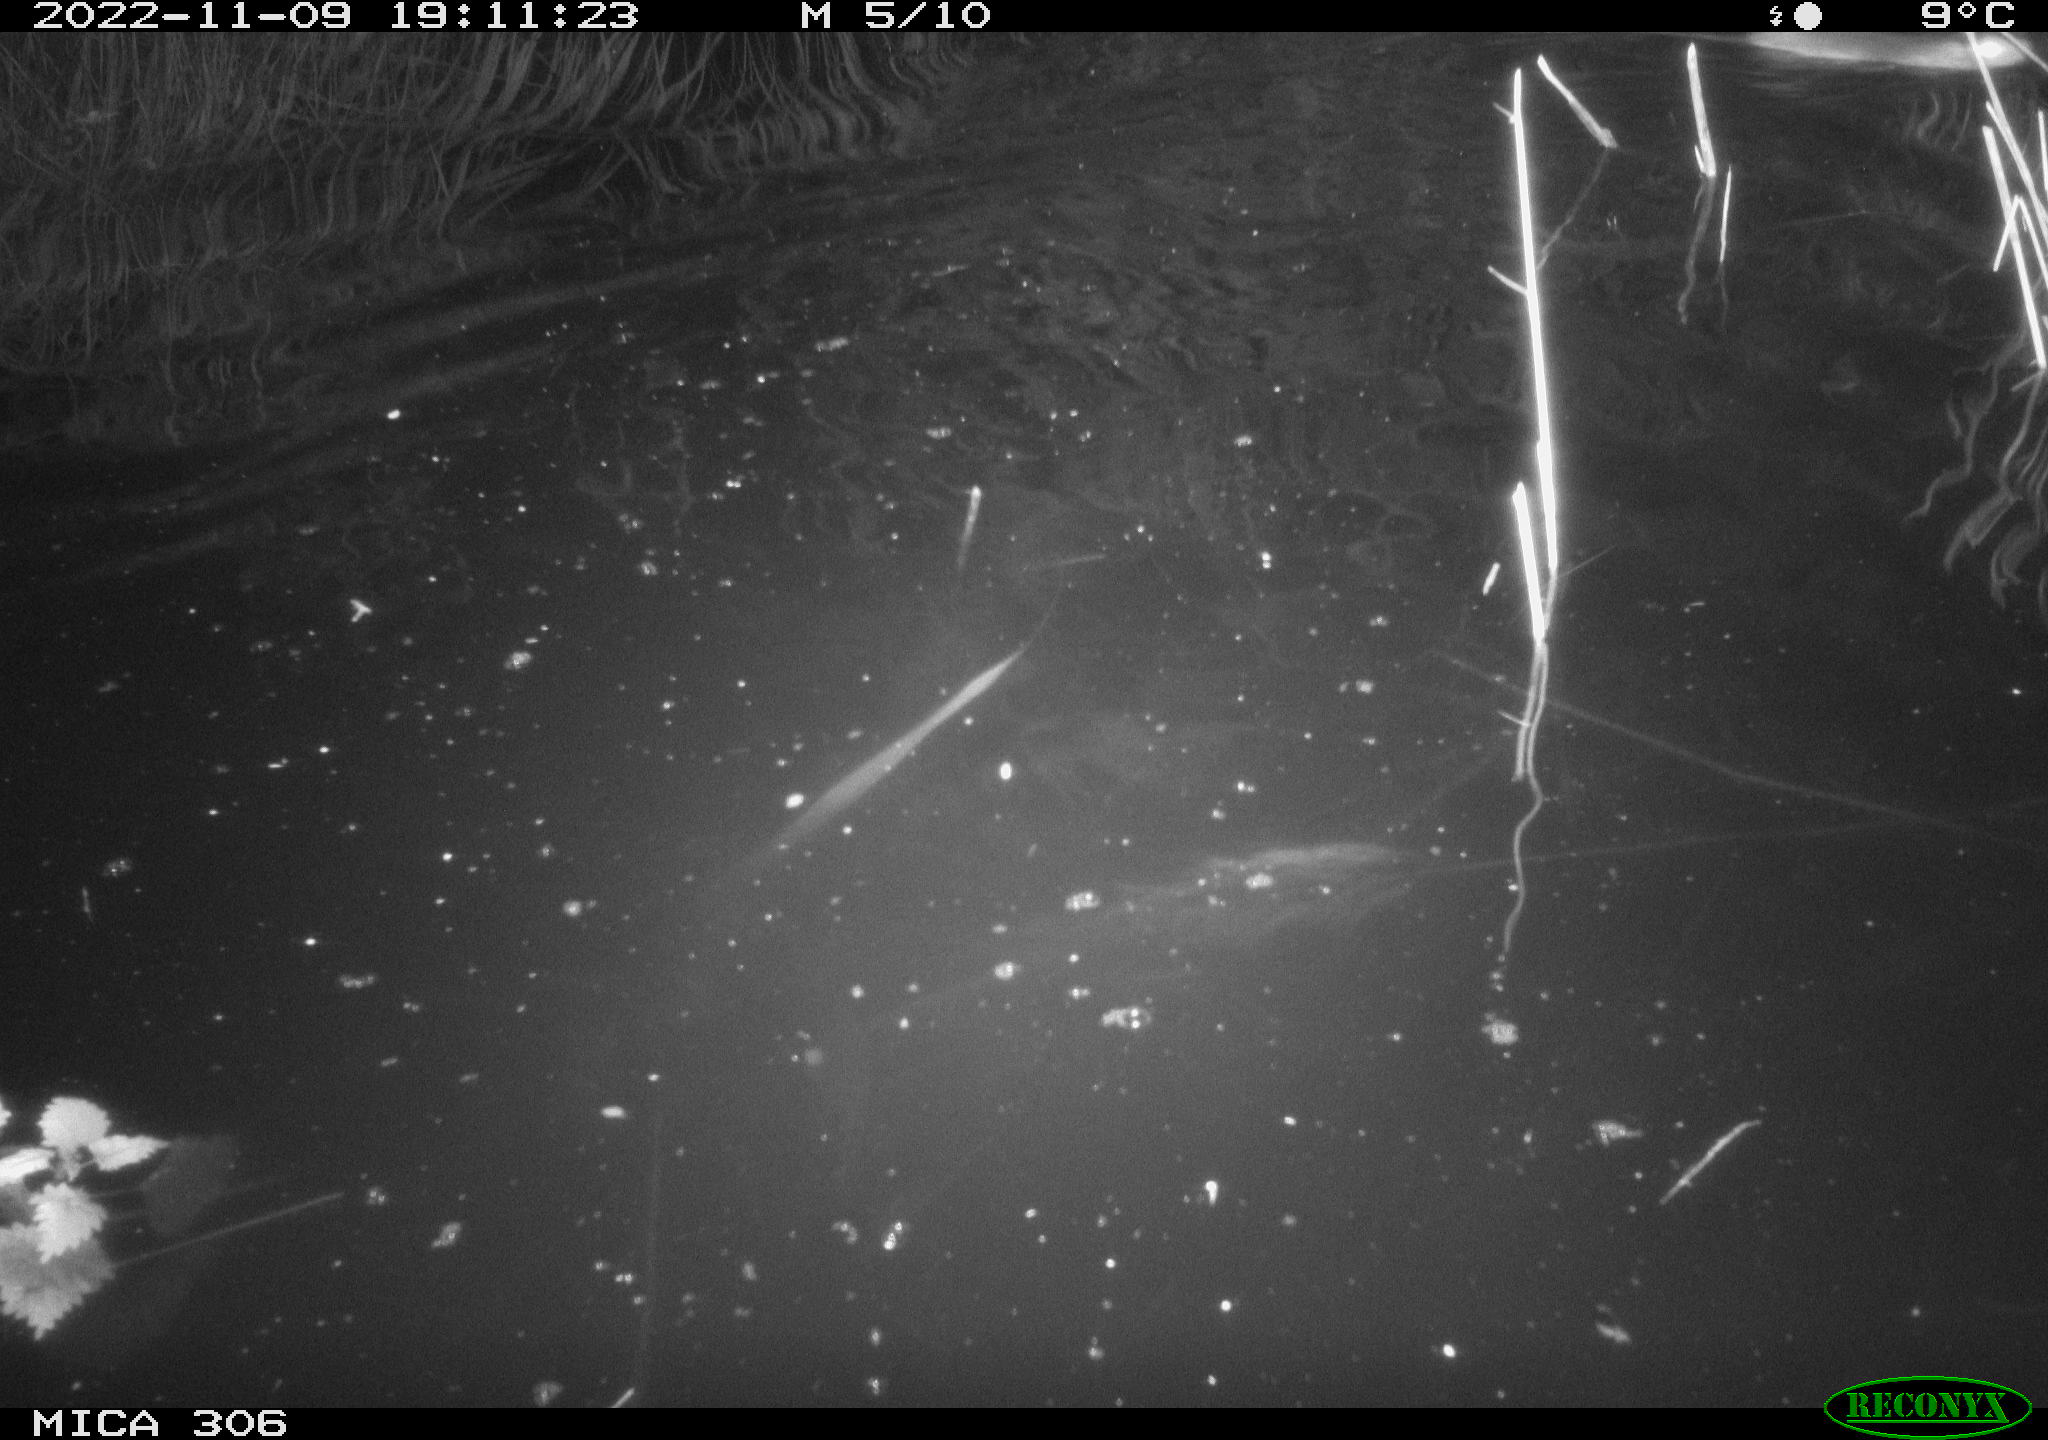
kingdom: Animalia
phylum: Chordata
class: Mammalia
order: Rodentia
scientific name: Rodentia
